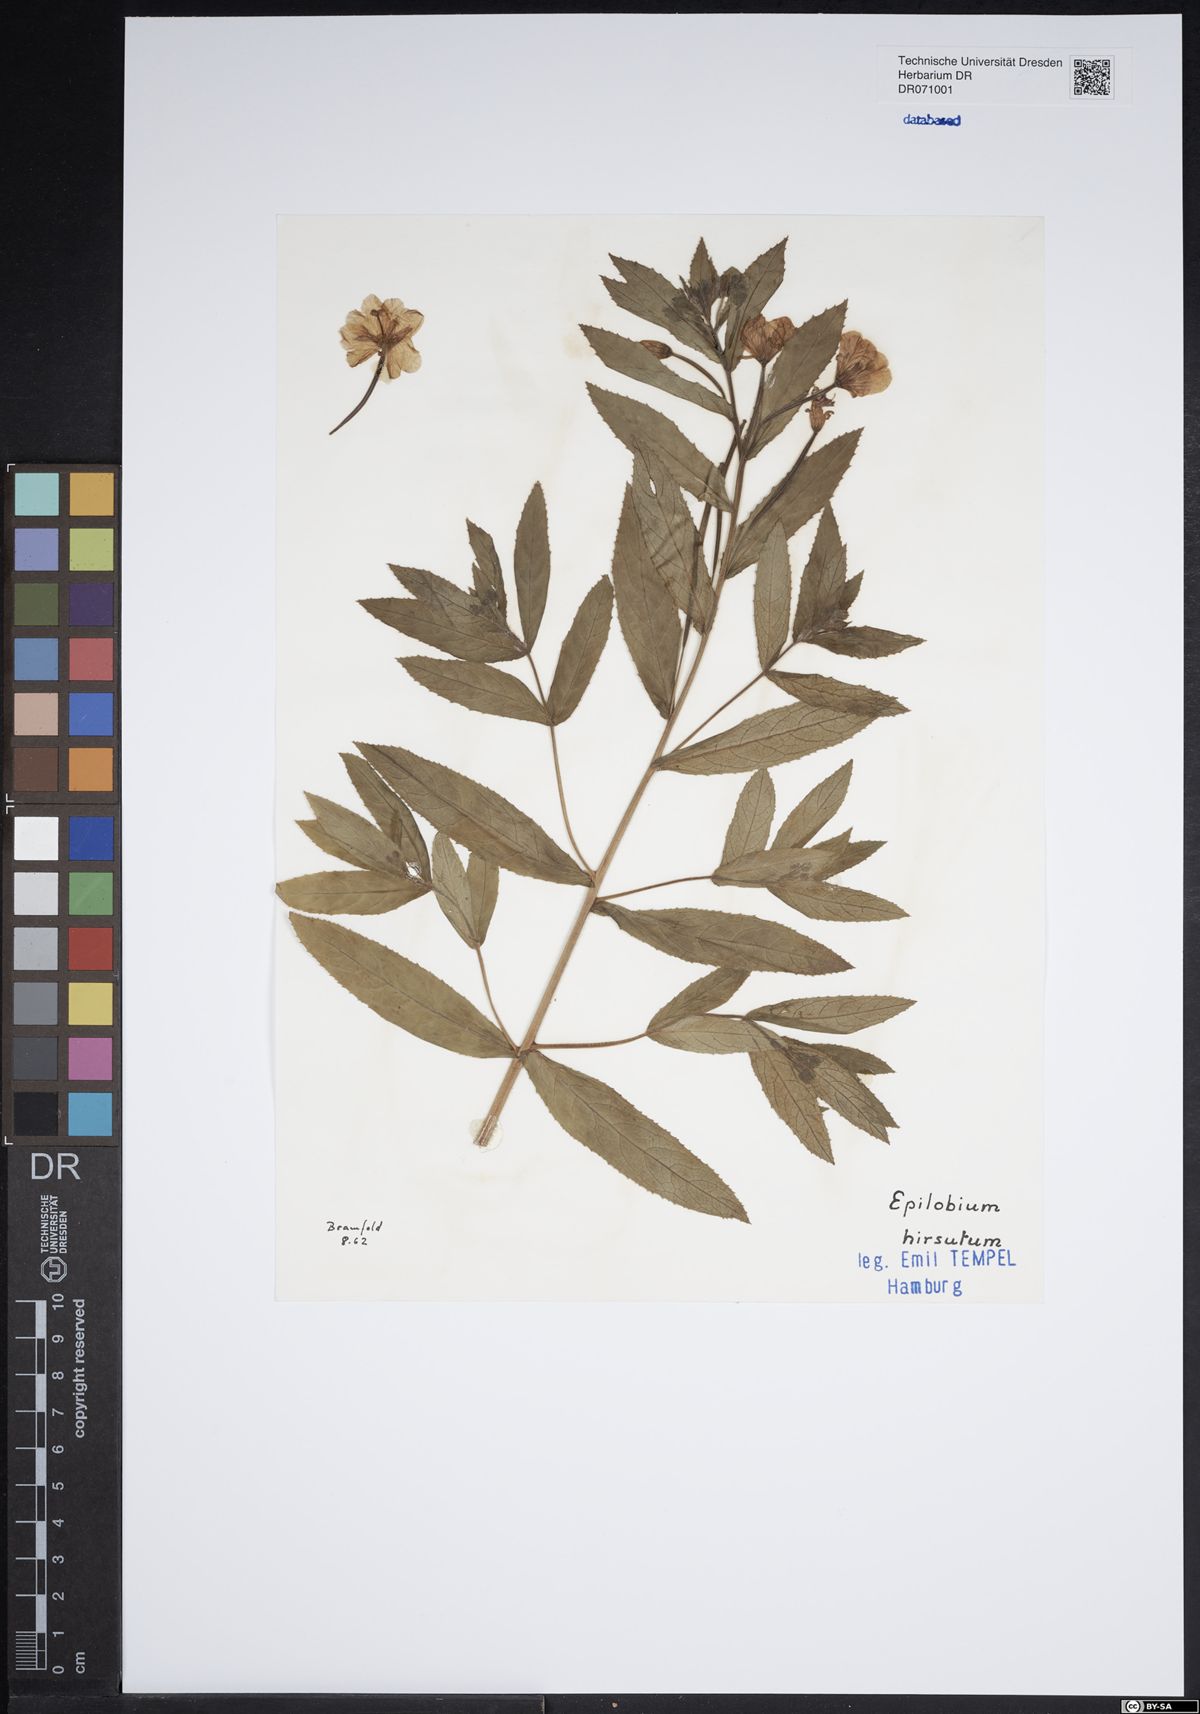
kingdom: Plantae
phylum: Tracheophyta
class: Magnoliopsida
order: Myrtales
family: Onagraceae
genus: Epilobium
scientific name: Epilobium hirsutum
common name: Great willowherb
